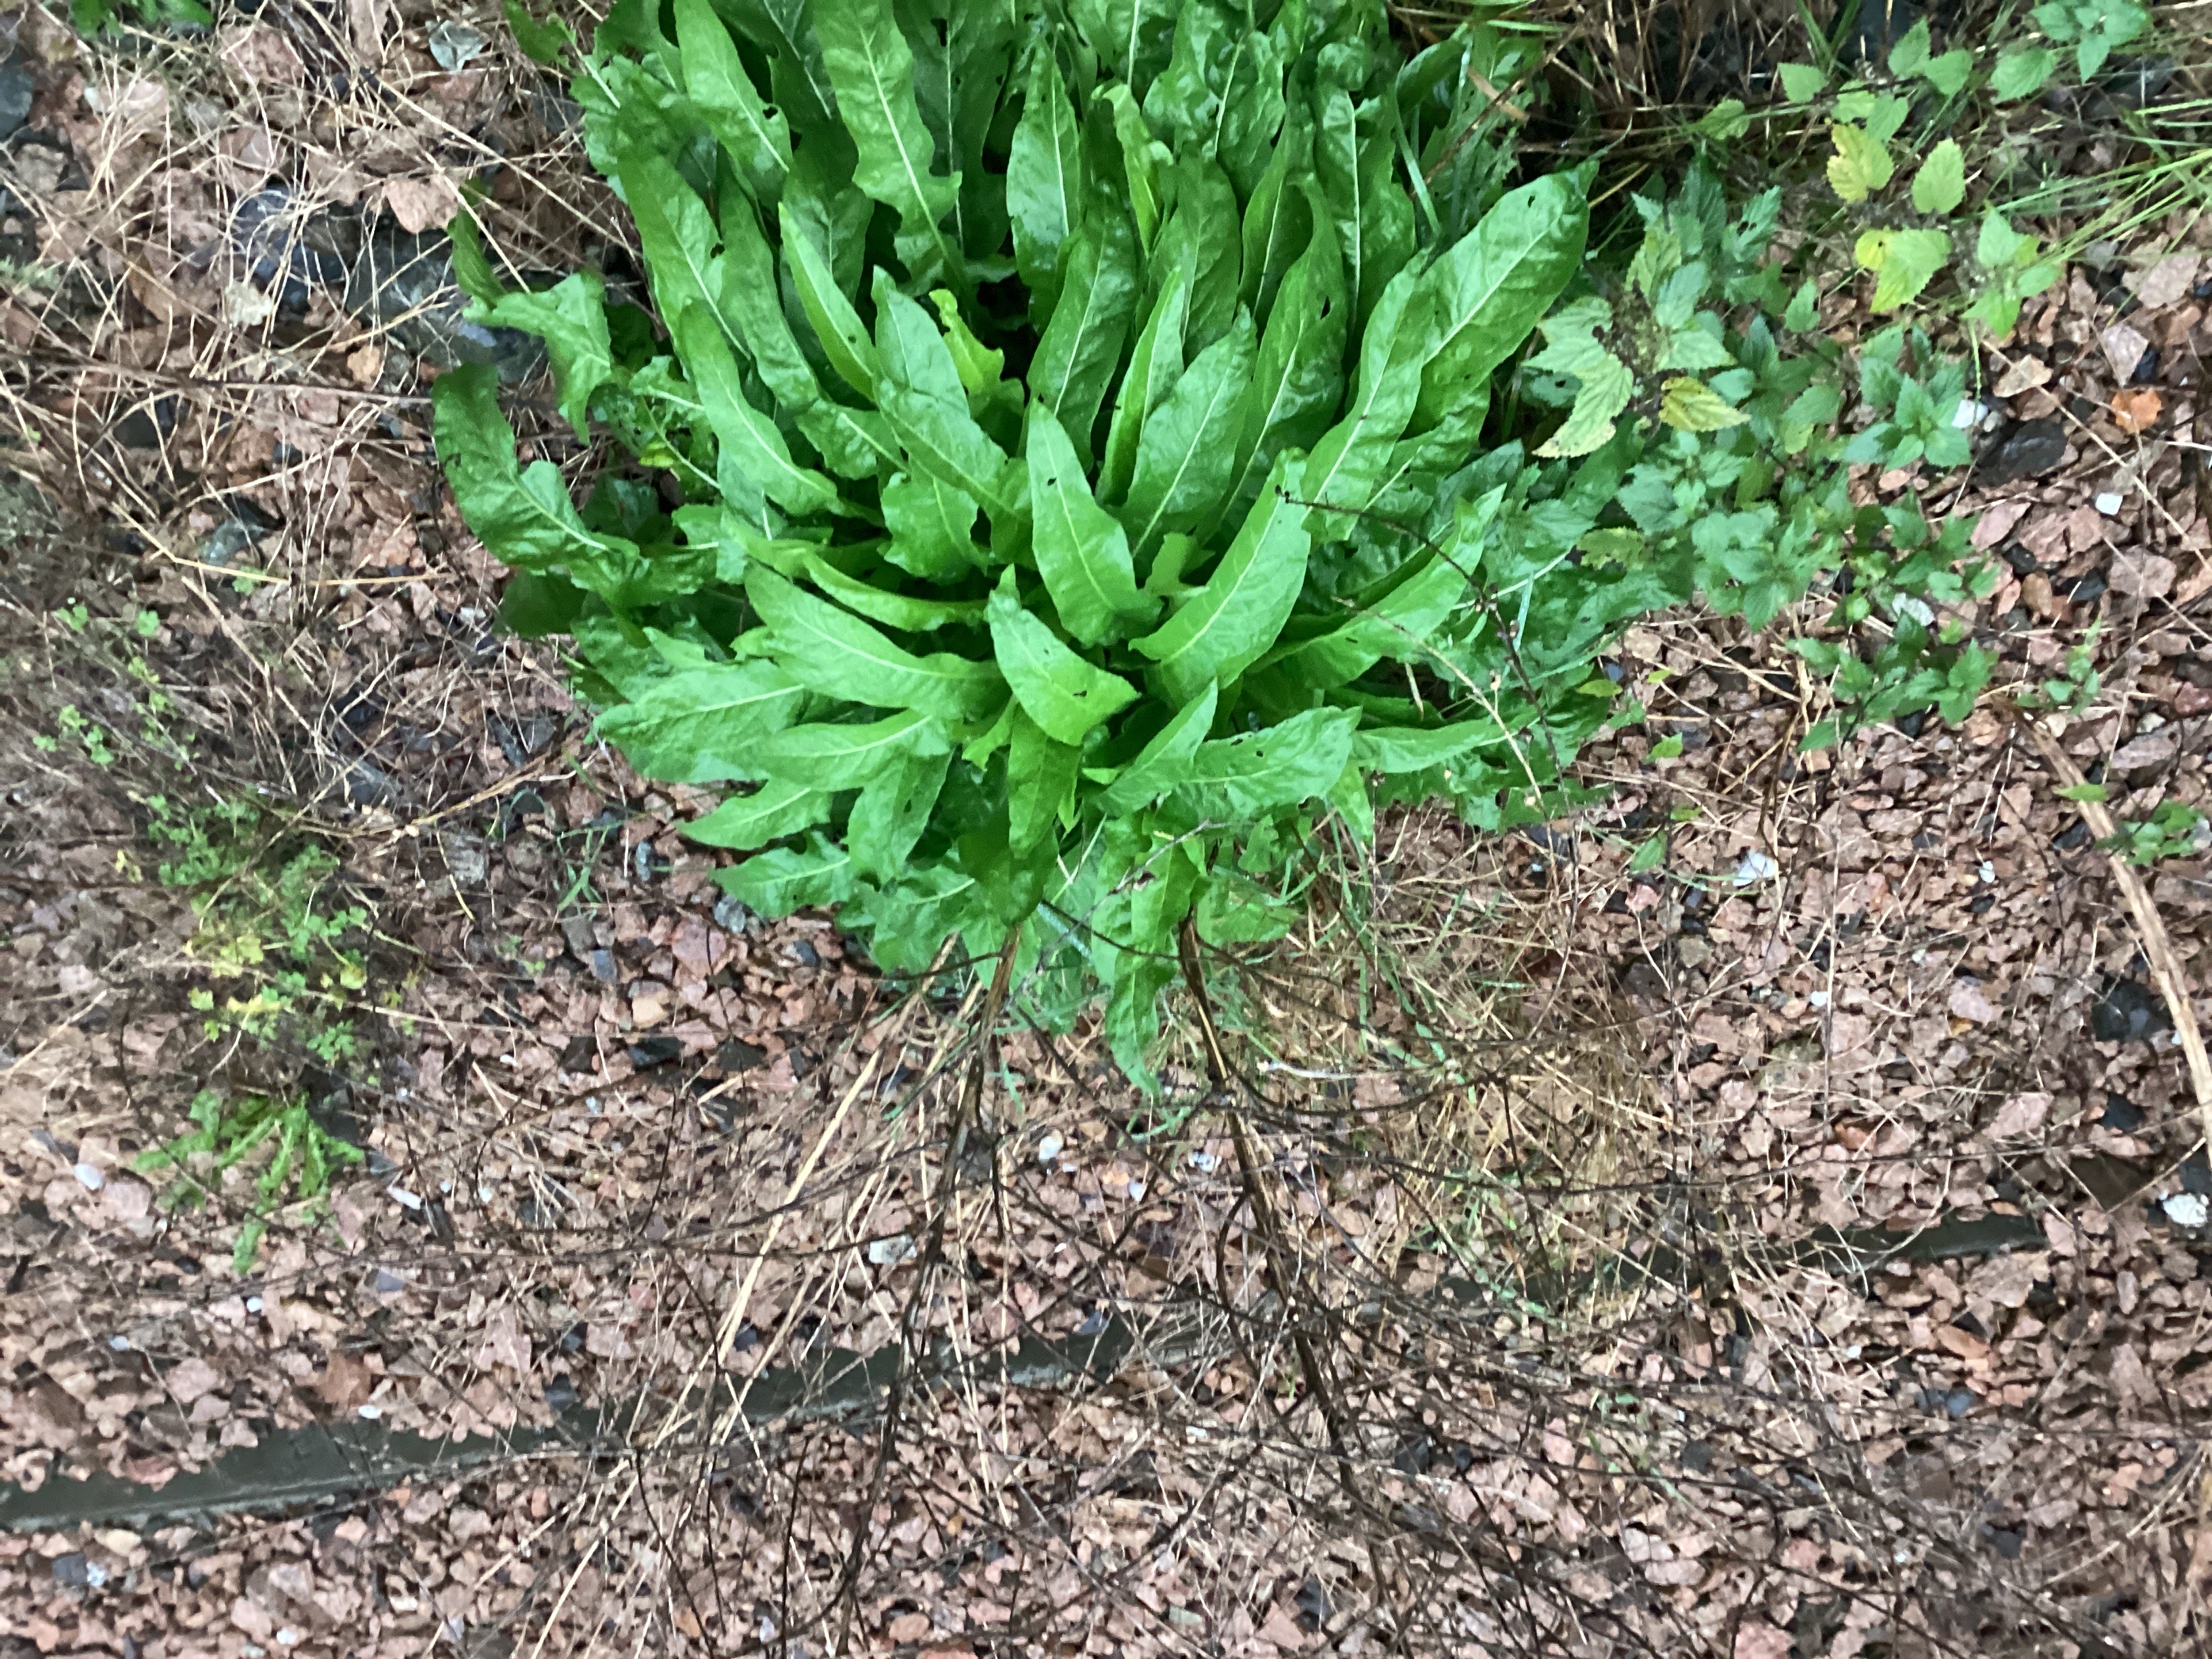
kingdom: Plantae
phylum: Tracheophyta
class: Magnoliopsida
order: Brassicales
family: Brassicaceae
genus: Bunias
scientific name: Bunias orientalis
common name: russekål
